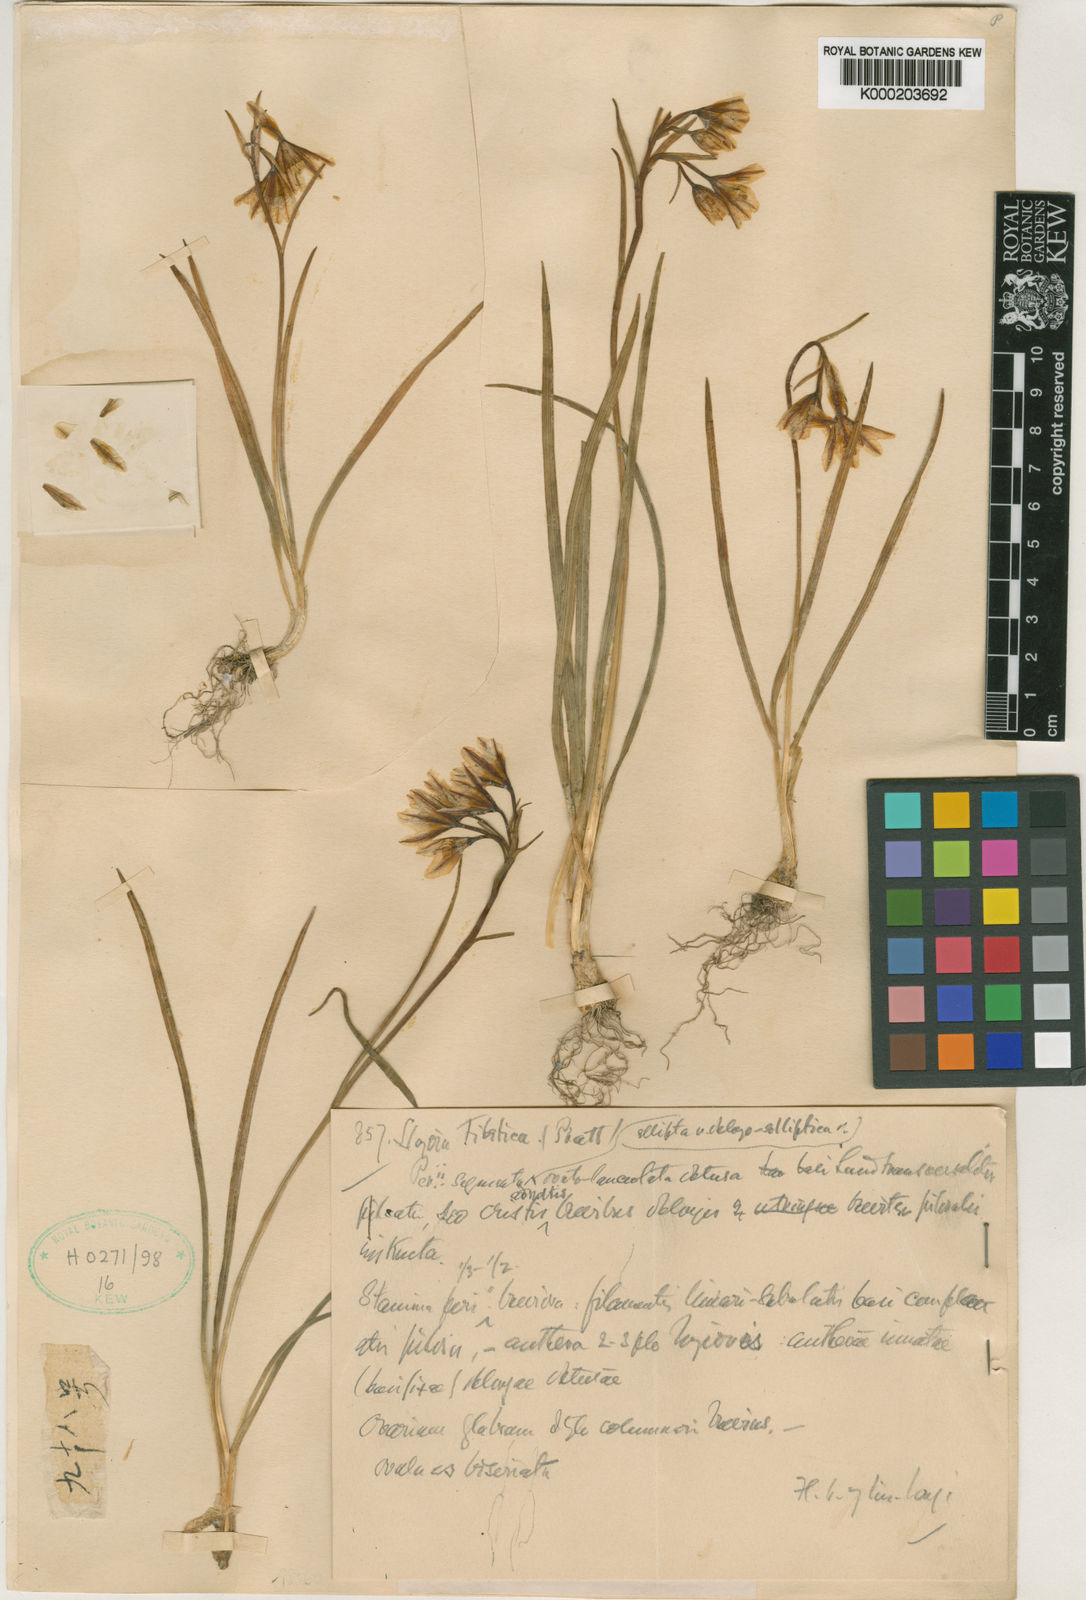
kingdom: Plantae
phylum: Tracheophyta
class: Liliopsida
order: Liliales
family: Liliaceae
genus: Gagea
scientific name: Gagea tibetica
